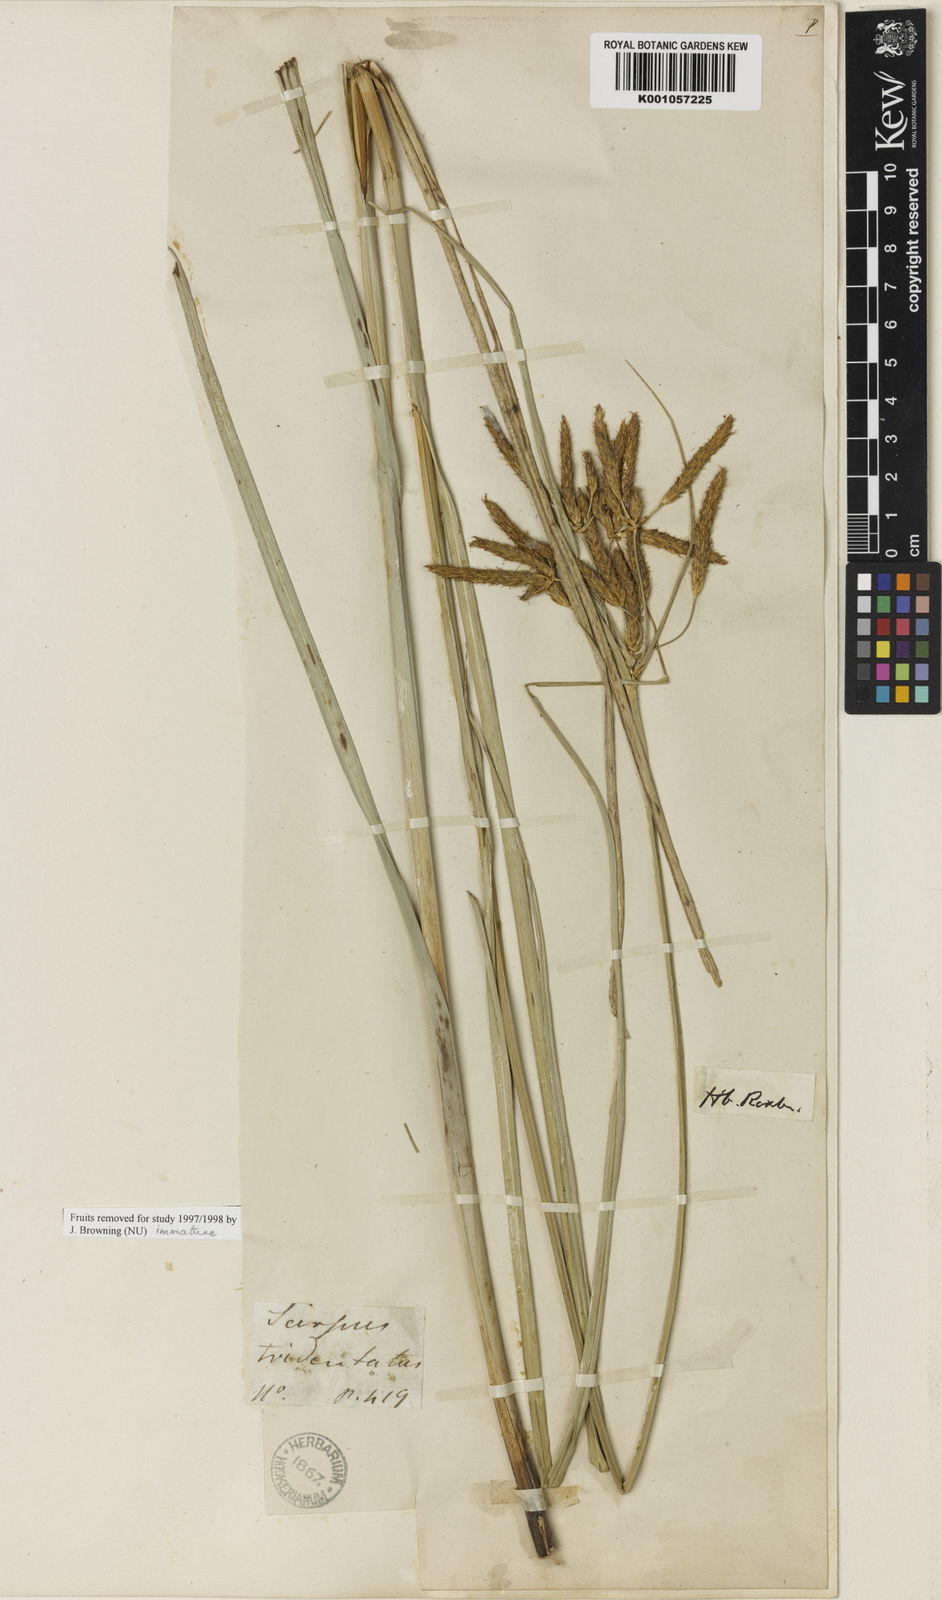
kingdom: Plantae
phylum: Tracheophyta
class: Liliopsida
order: Poales
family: Cyperaceae
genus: Bolboschoenus
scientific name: Bolboschoenus maritimus
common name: Sea club-rush
